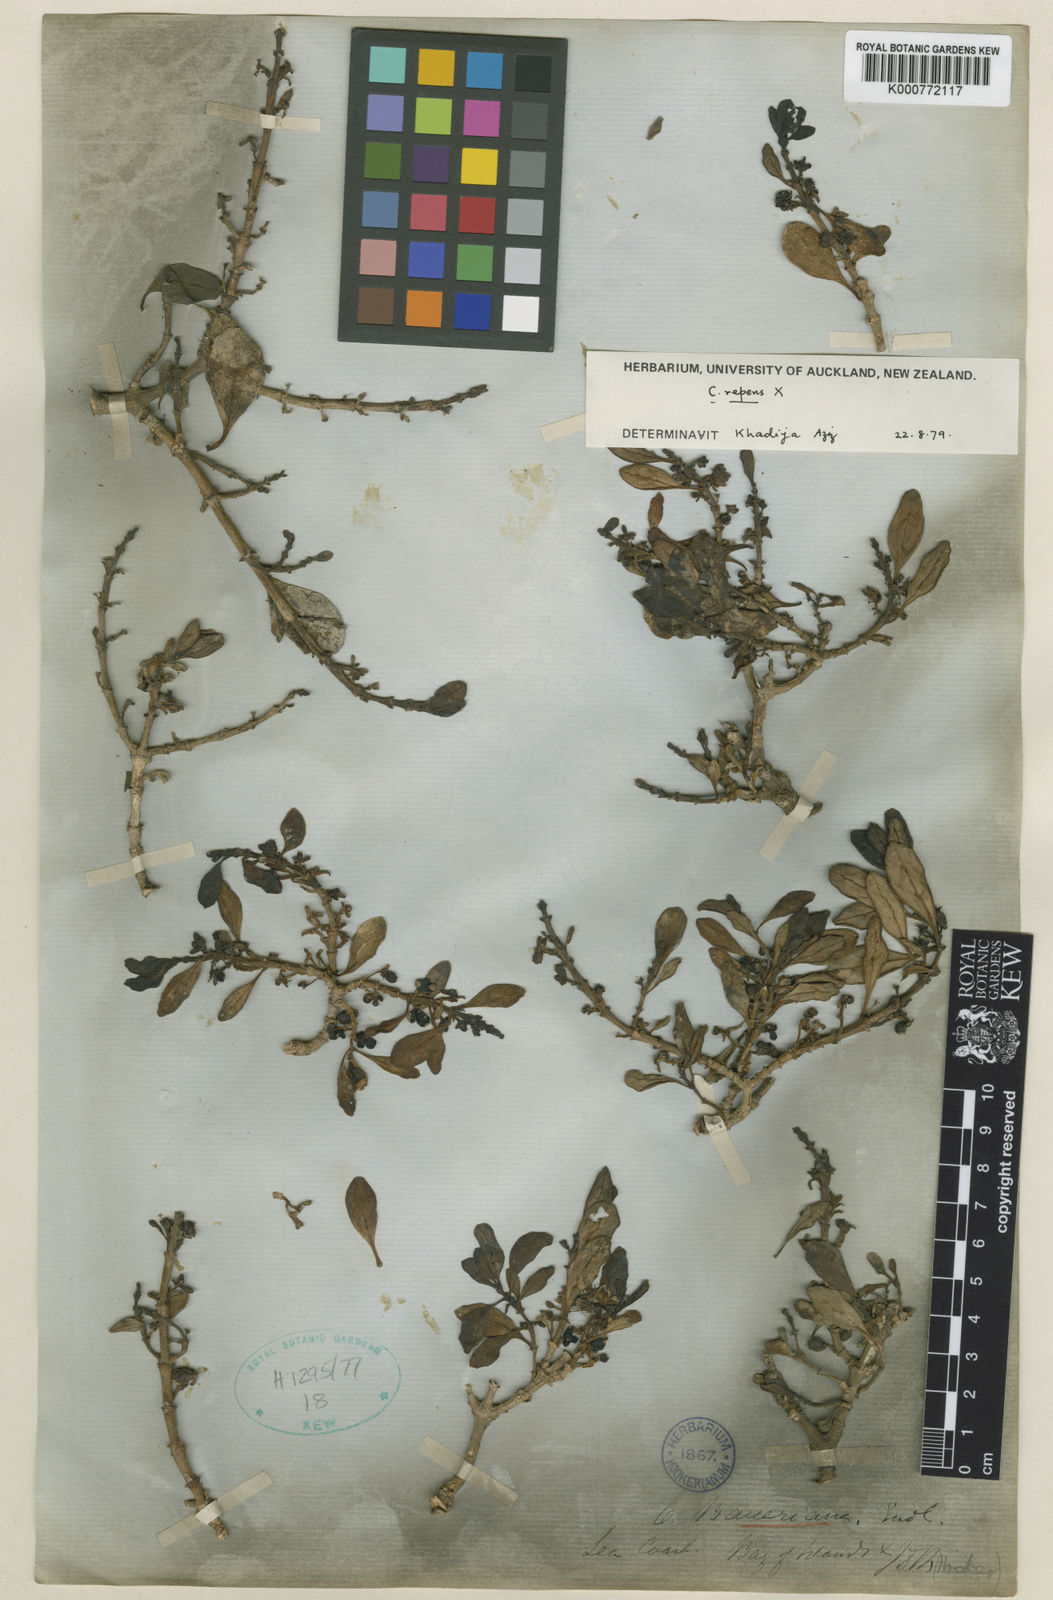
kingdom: Plantae
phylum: Tracheophyta
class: Magnoliopsida
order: Gentianales
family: Rubiaceae
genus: Coprosma
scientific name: Coprosma repens
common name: Tree bedstraw
